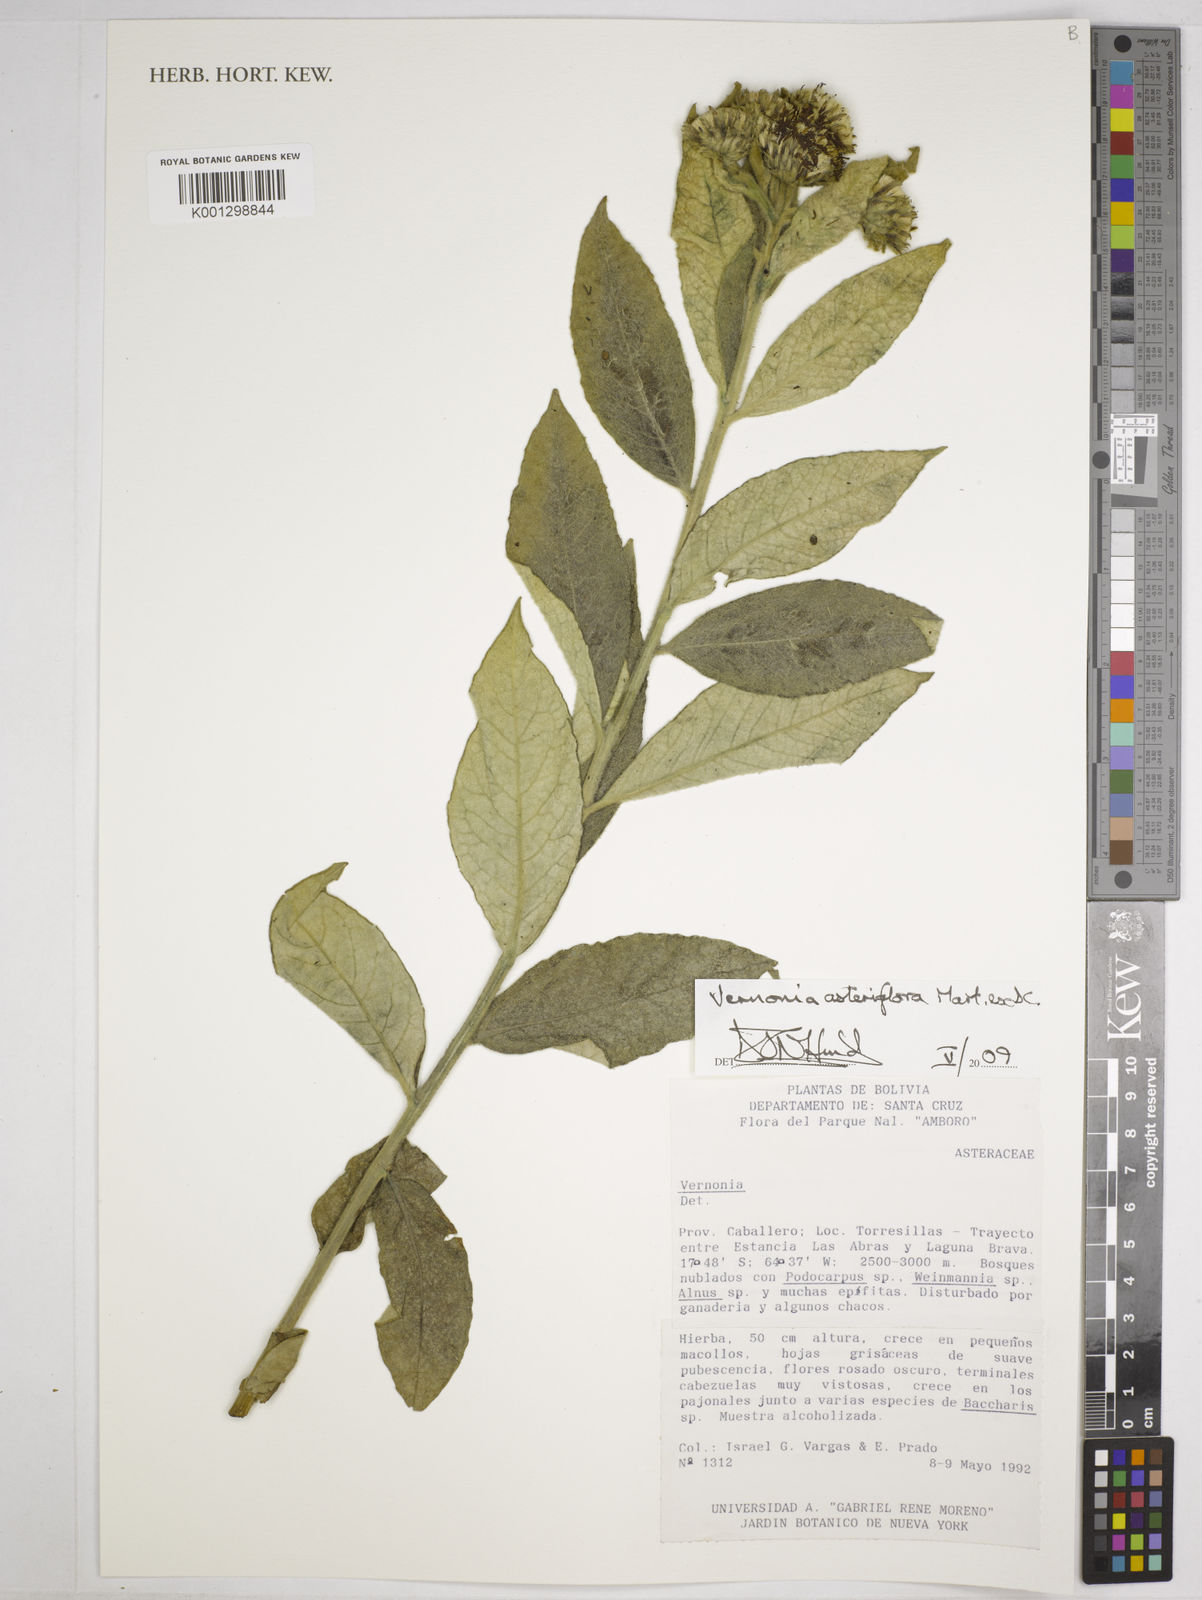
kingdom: Plantae
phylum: Tracheophyta
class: Magnoliopsida
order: Asterales
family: Asteraceae
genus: Lessingianthus
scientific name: Lessingianthus asteriflorus
